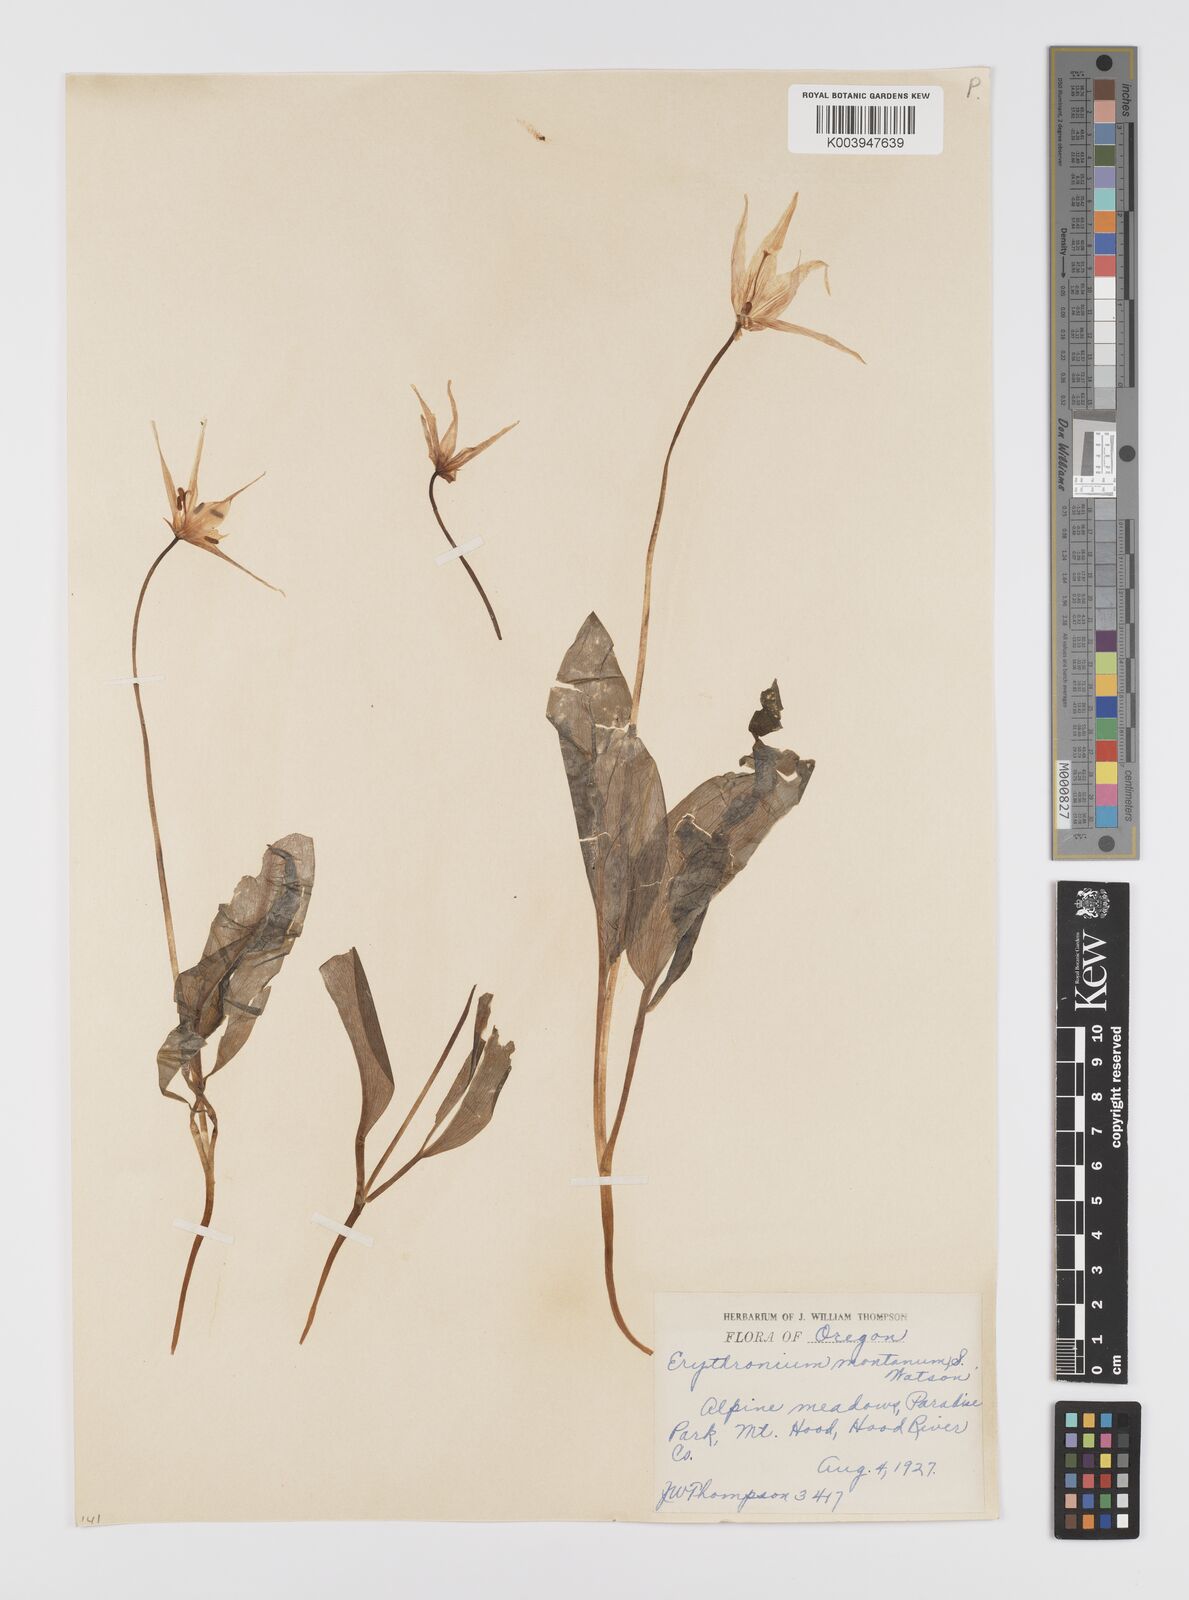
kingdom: Plantae
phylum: Tracheophyta
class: Liliopsida
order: Liliales
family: Liliaceae
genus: Erythronium
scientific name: Erythronium montanum
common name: Avalanche lily
